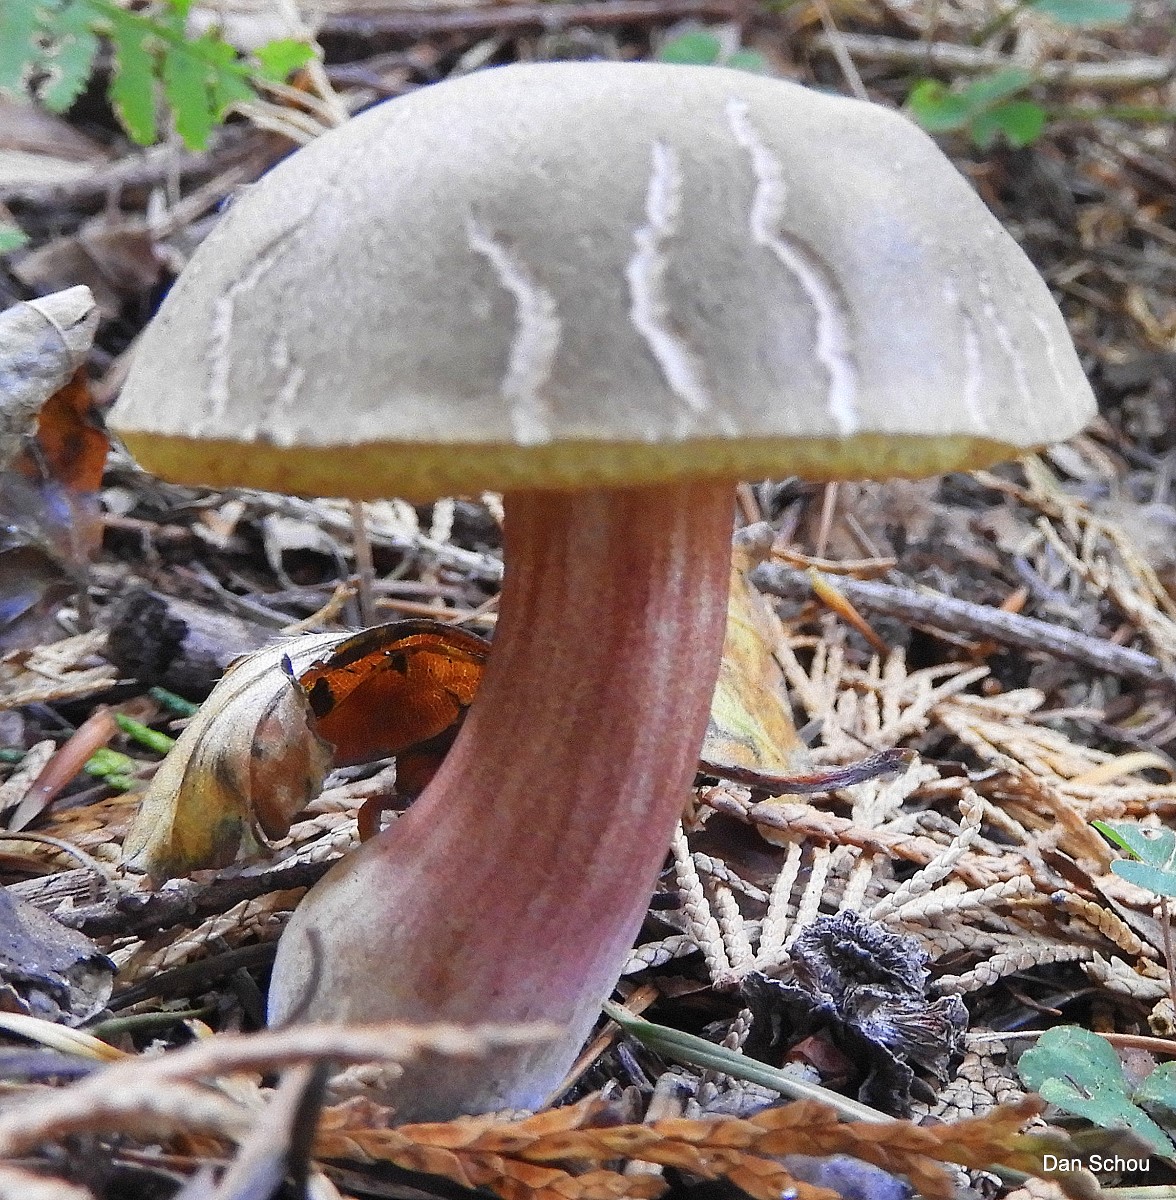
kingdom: Fungi
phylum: Basidiomycota
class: Agaricomycetes
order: Boletales
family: Boletaceae
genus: Xerocomellus
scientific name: Xerocomellus
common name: dværgrørhat
